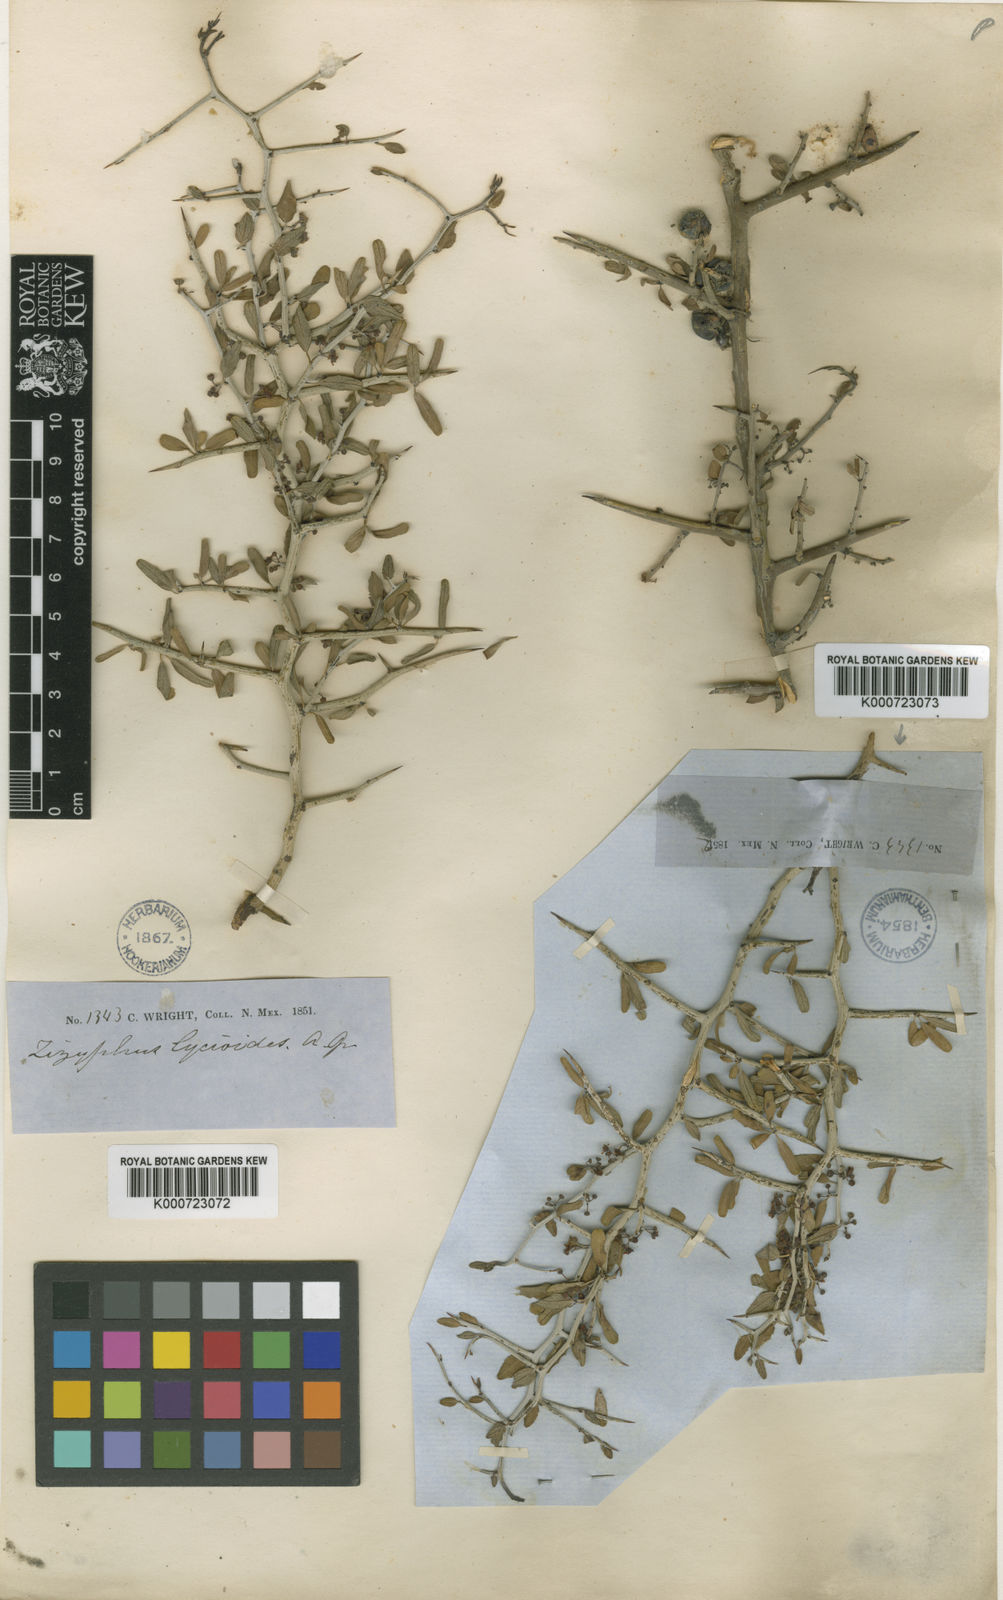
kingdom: Plantae
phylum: Tracheophyta
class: Magnoliopsida
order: Rosales
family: Rhamnaceae
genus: Sarcomphalus
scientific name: Sarcomphalus obtusifolius
